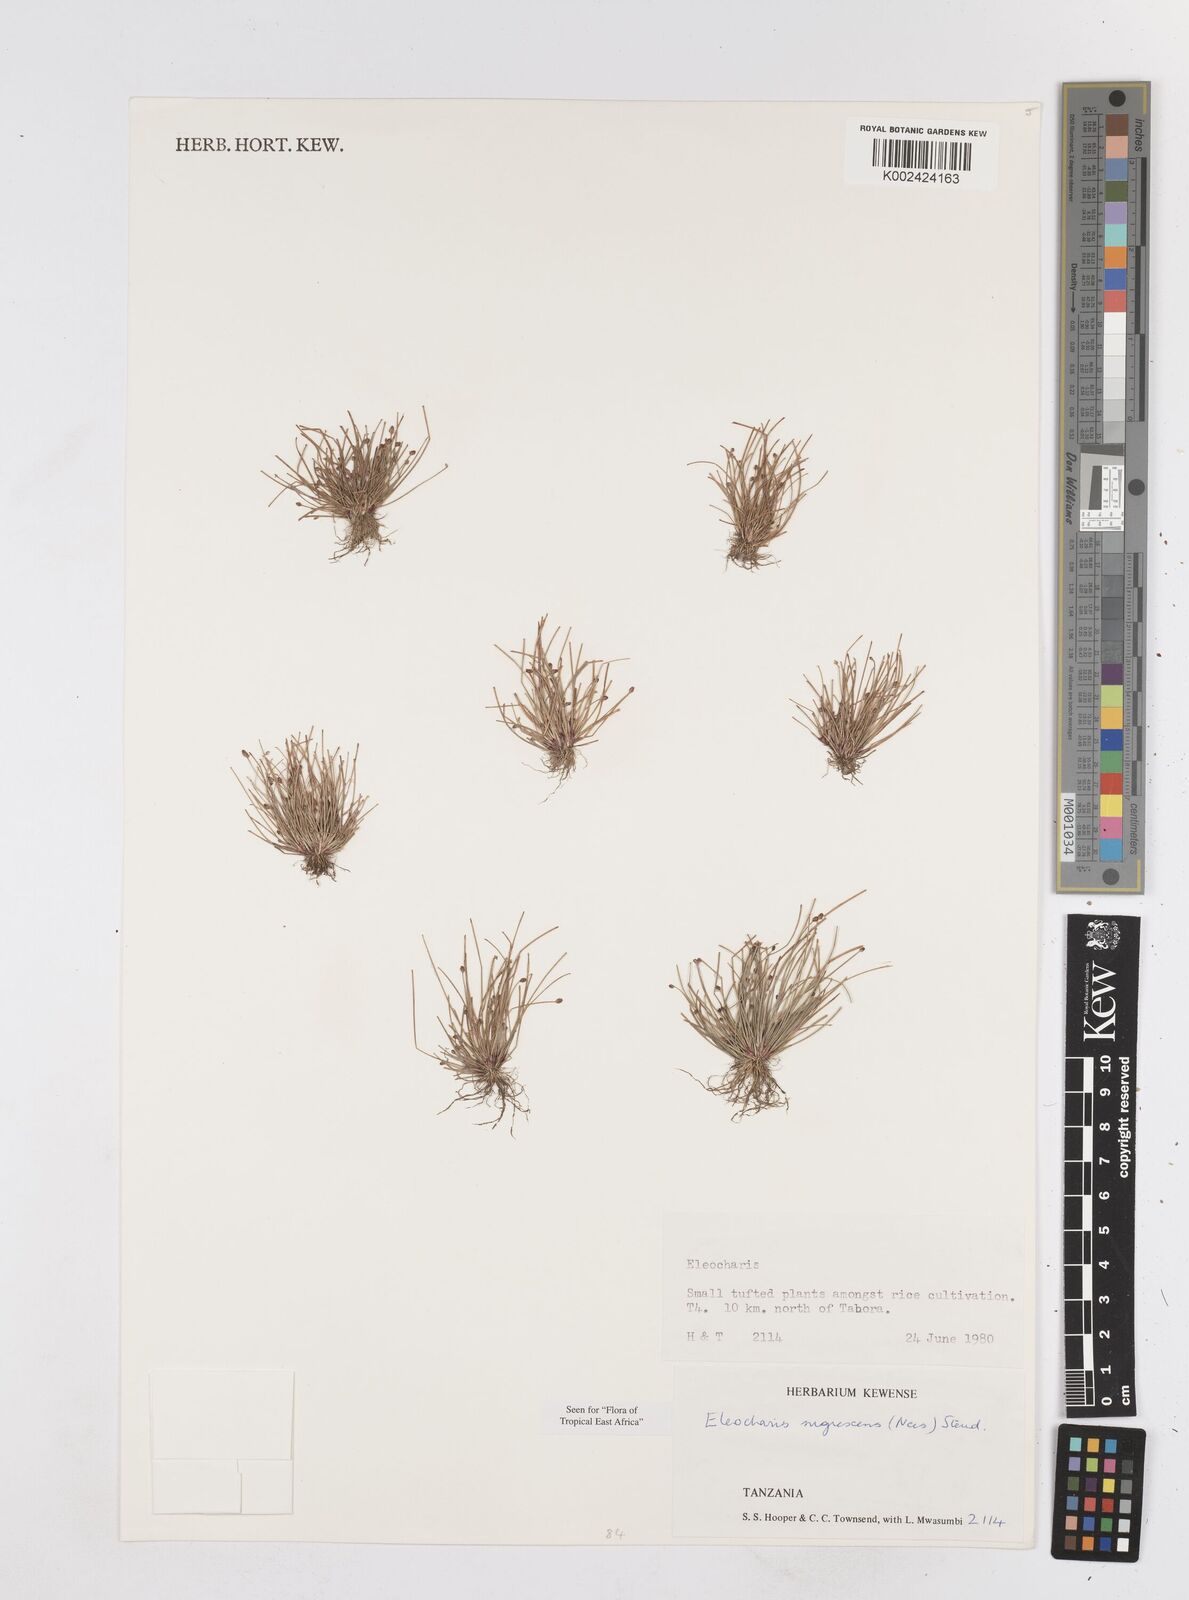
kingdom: Plantae
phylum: Tracheophyta
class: Liliopsida
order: Poales
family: Cyperaceae
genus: Eleocharis
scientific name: Eleocharis nigrescens
